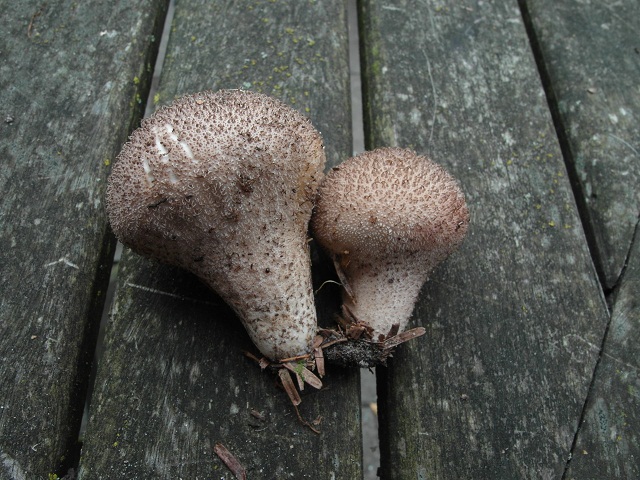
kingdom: Fungi
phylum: Basidiomycota
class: Agaricomycetes
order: Agaricales
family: Lycoperdaceae
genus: Lycoperdon
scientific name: Lycoperdon nigrescens
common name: sortagtig støvbold
